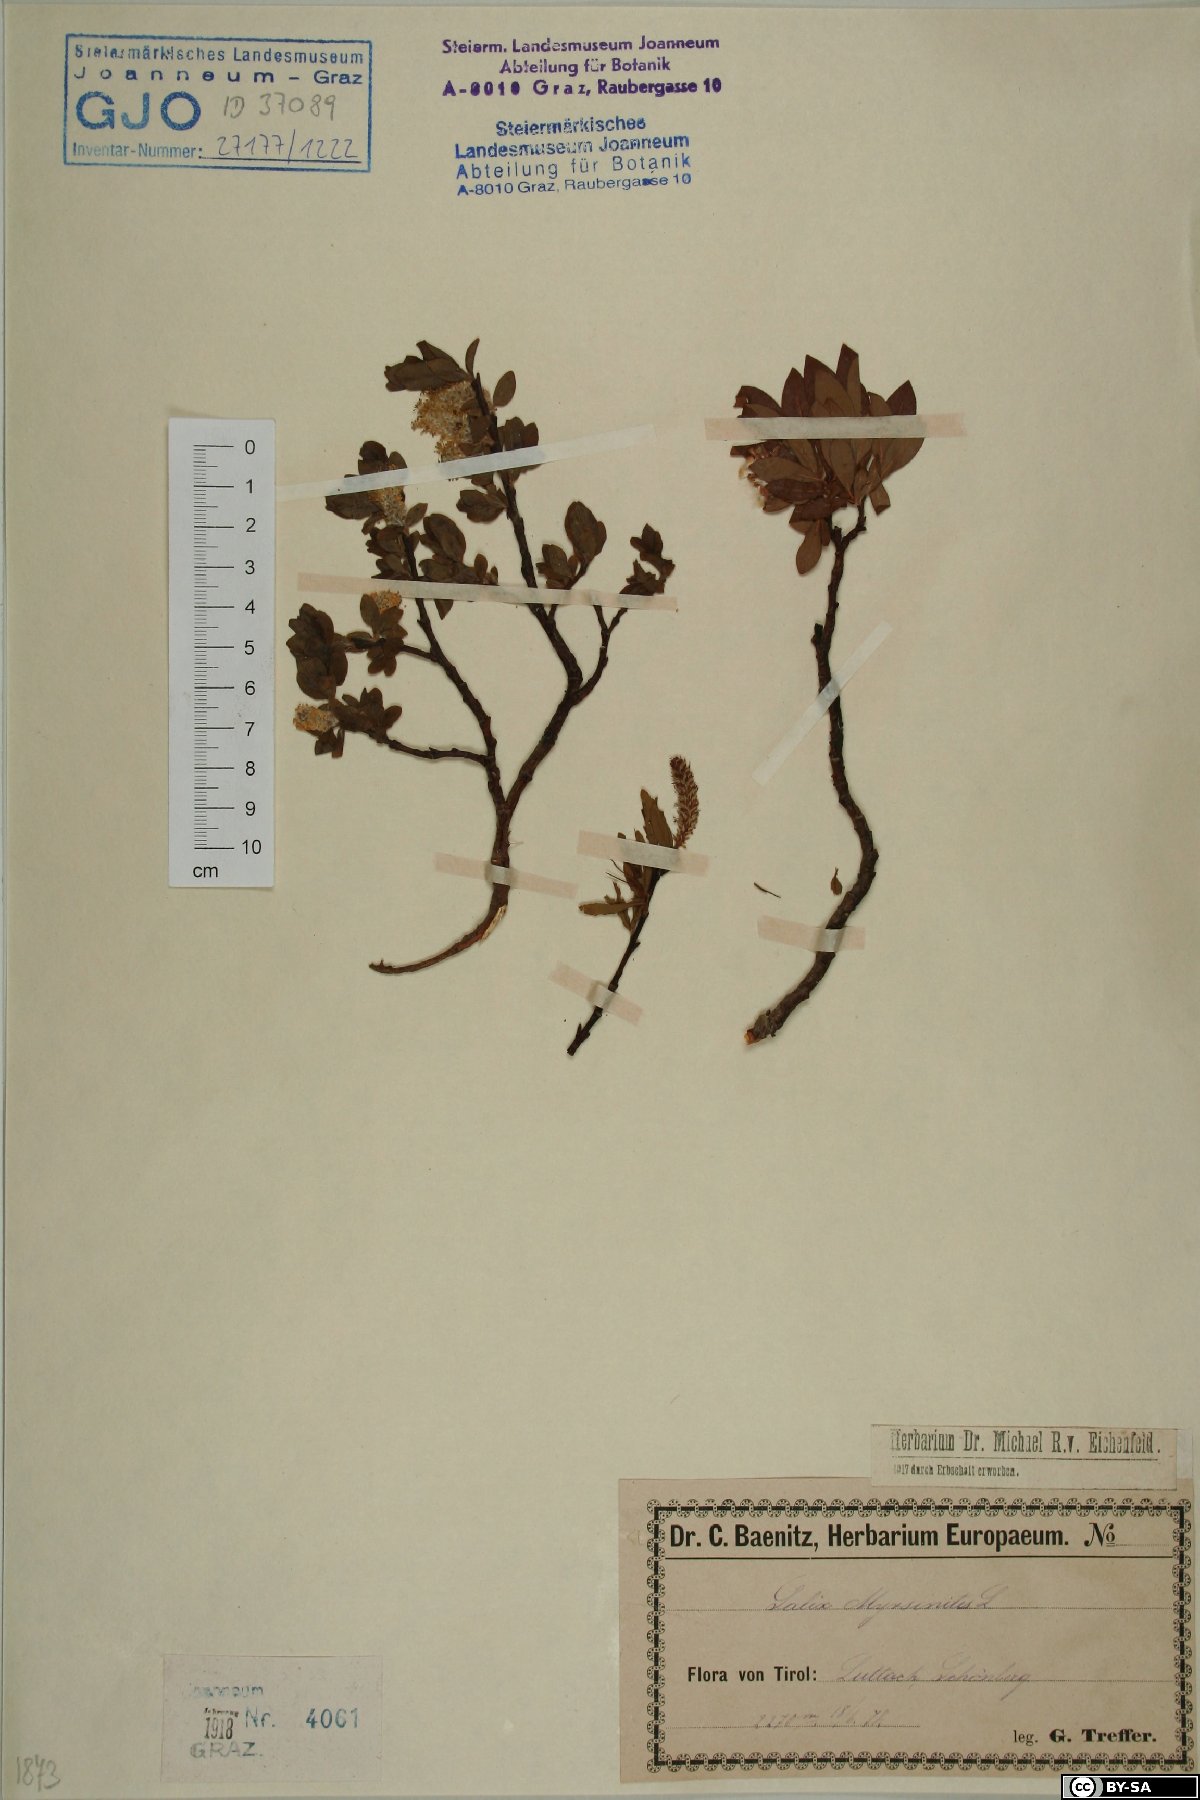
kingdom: Plantae
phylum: Tracheophyta
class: Magnoliopsida
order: Malpighiales
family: Salicaceae
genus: Salix
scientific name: Salix myrsinites
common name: Myrtle willow
